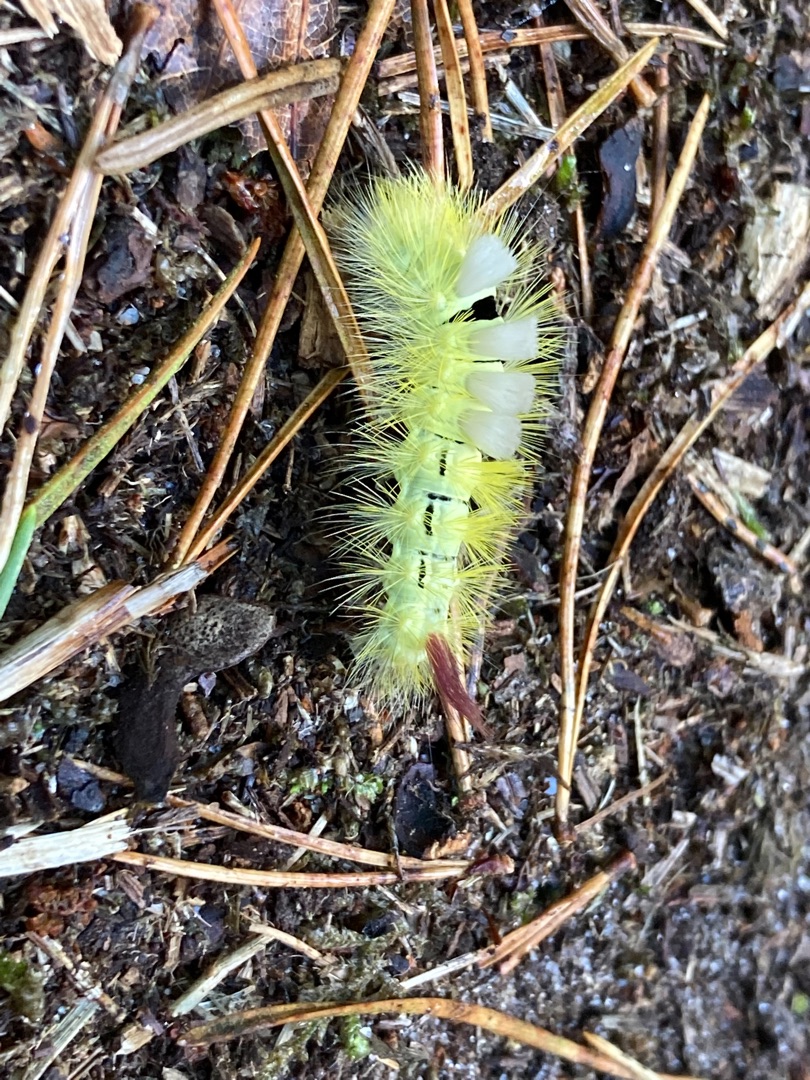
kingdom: Animalia
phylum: Arthropoda
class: Insecta
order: Lepidoptera
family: Erebidae
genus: Calliteara
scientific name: Calliteara pudibunda
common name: Bøgenonne
